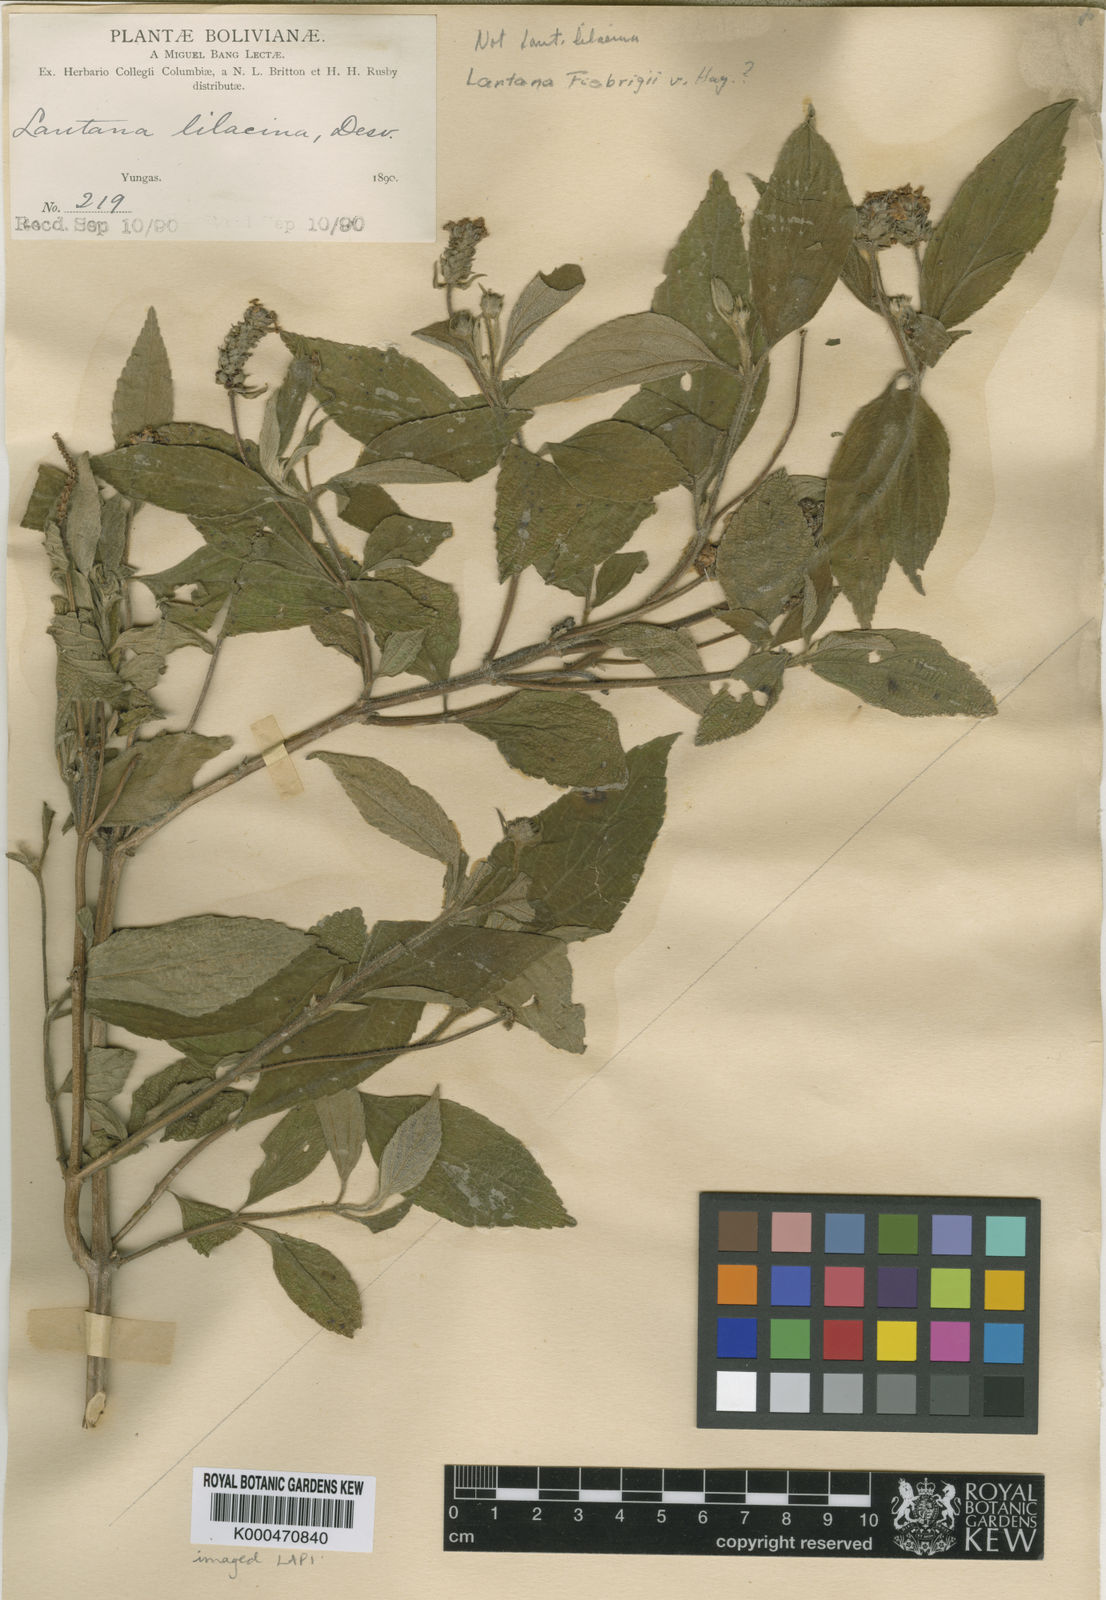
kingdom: Plantae
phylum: Tracheophyta
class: Magnoliopsida
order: Lamiales
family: Verbenaceae
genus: Lantana
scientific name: Lantana trifolia
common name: Sweet-sage
